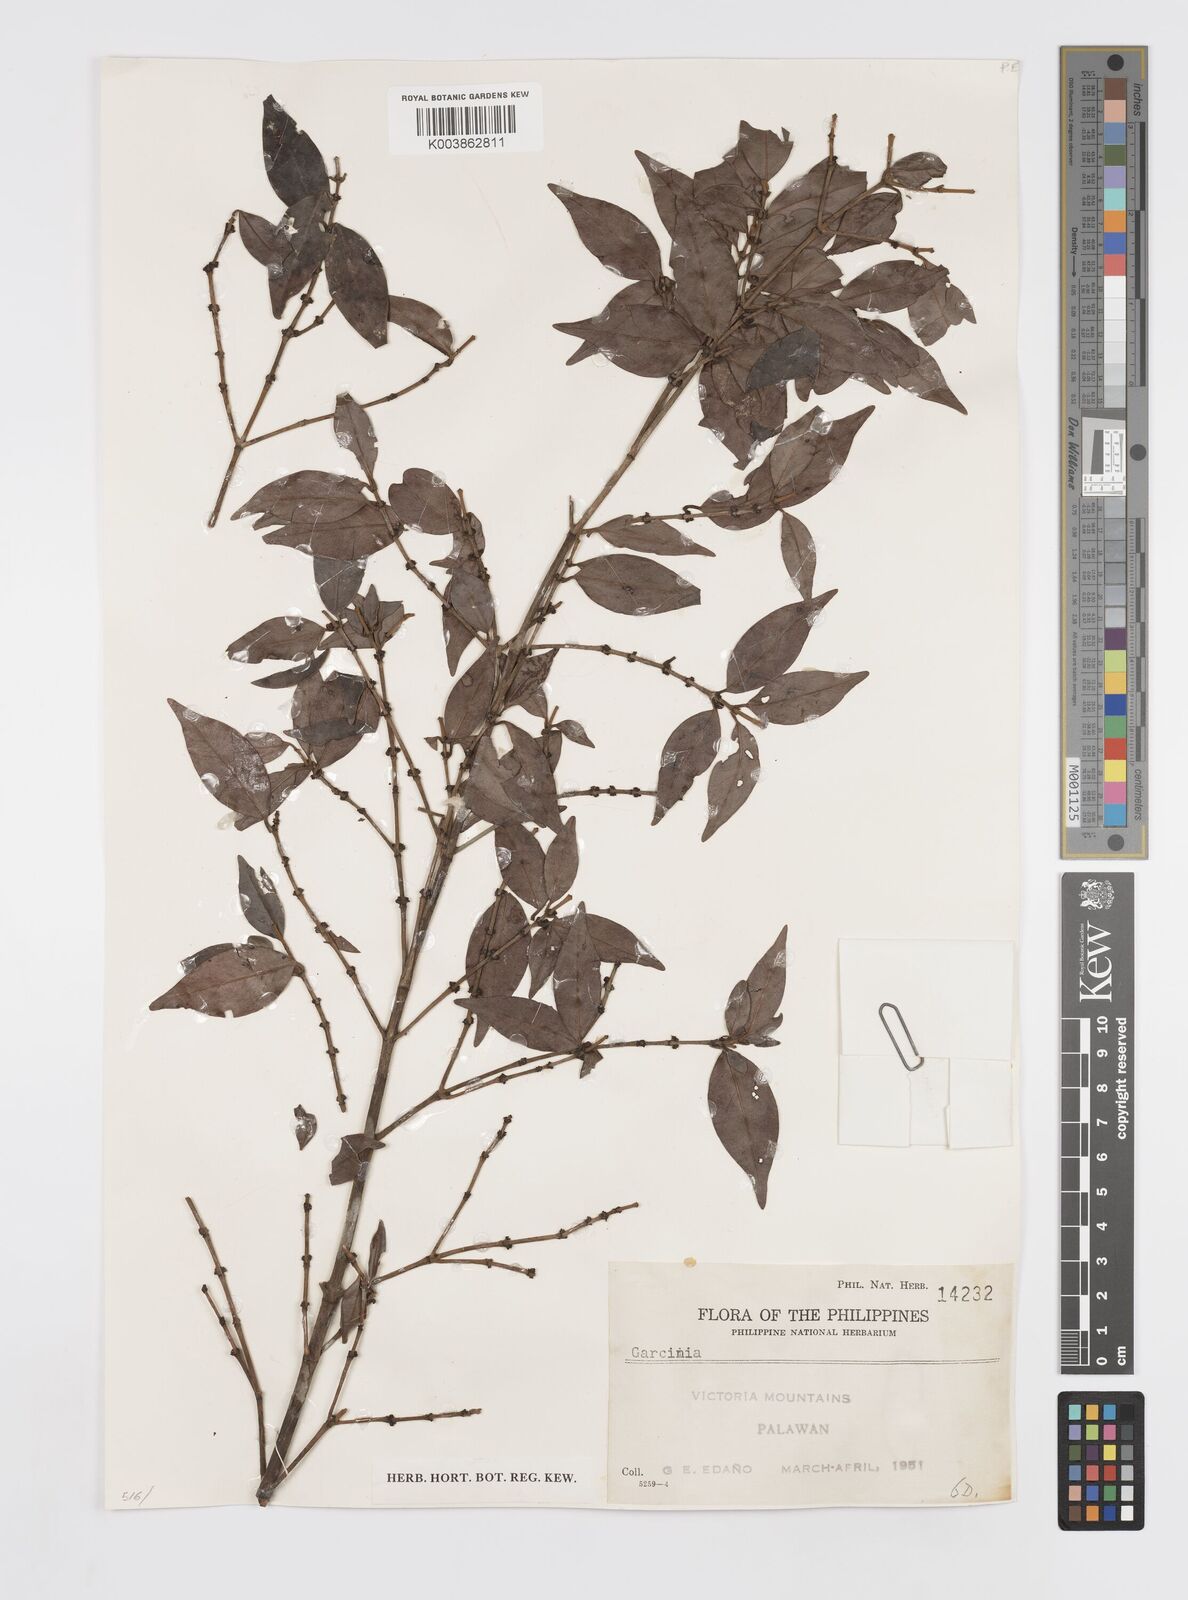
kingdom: Plantae
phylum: Tracheophyta
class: Magnoliopsida
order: Malpighiales
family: Clusiaceae
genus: Garcinia
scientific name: Garcinia
